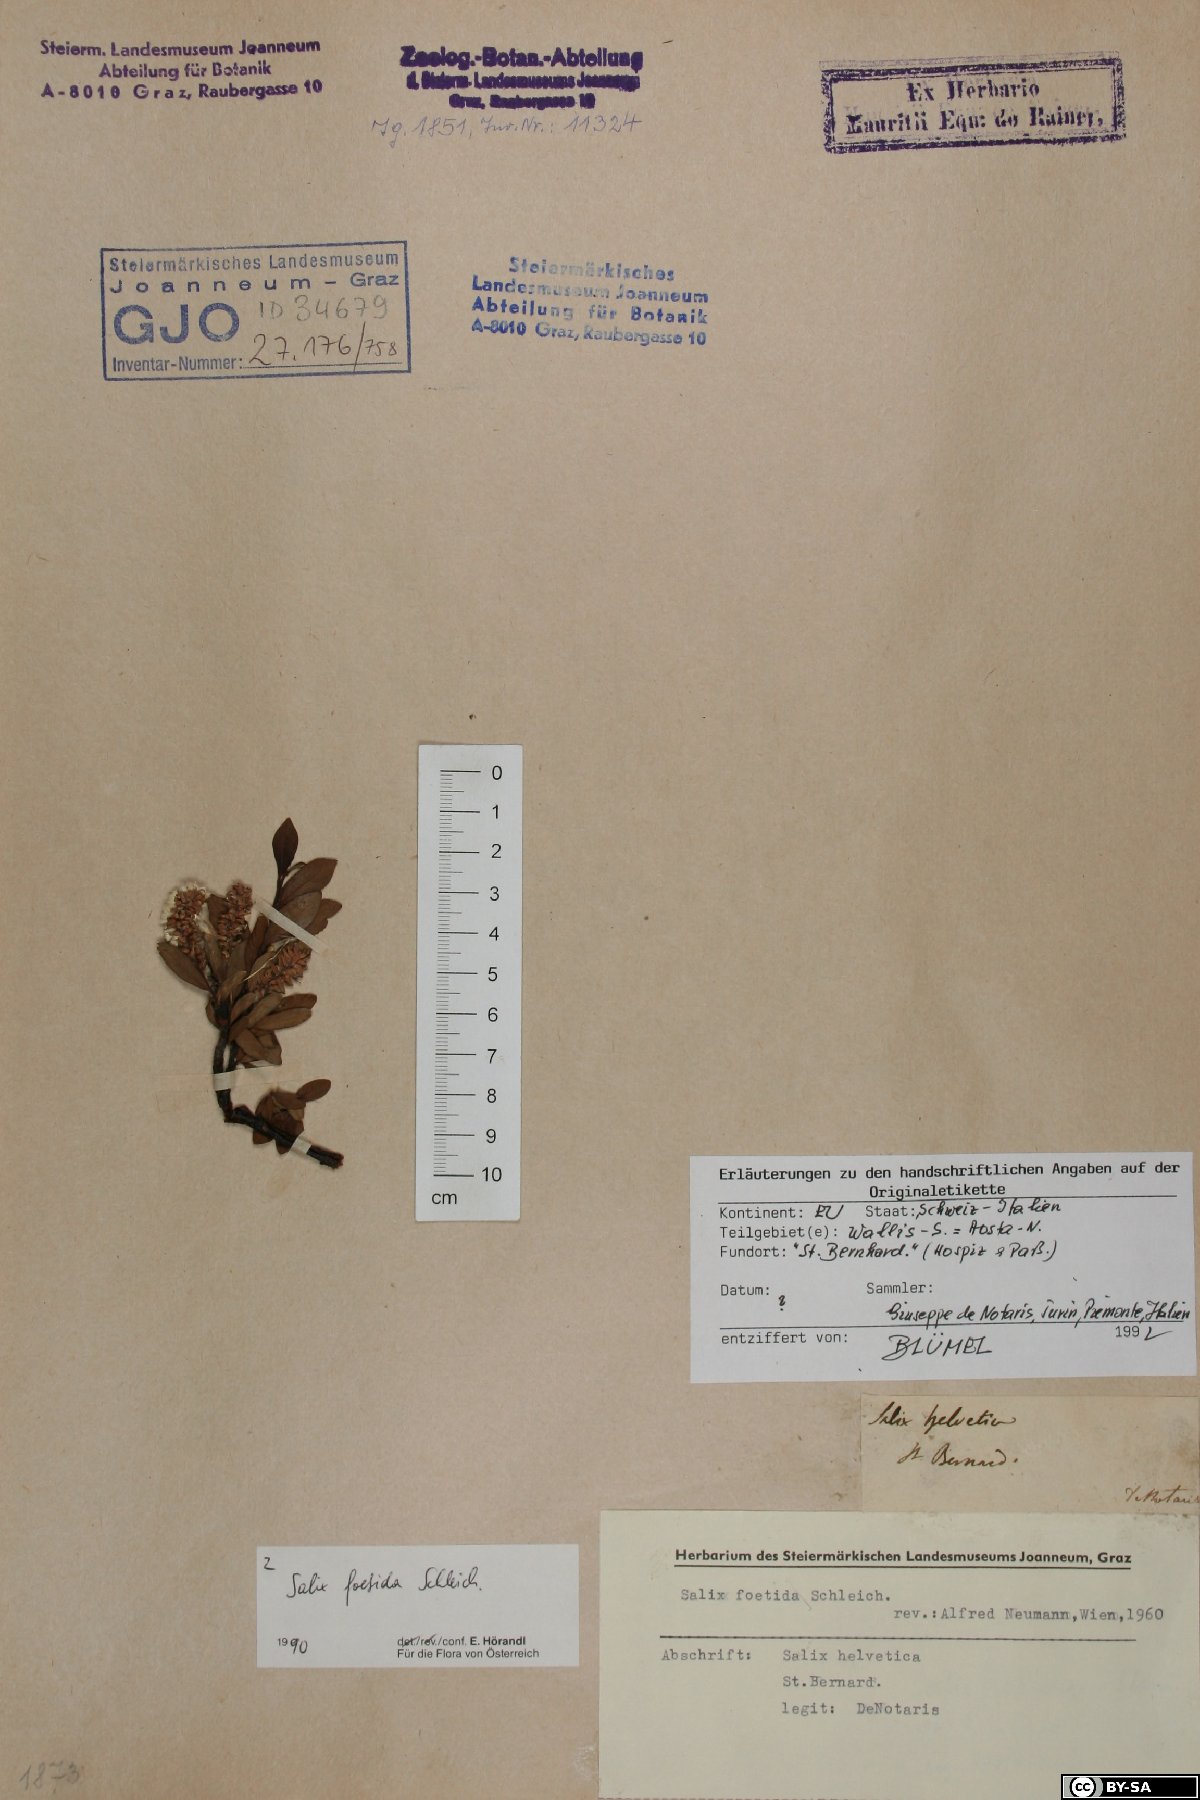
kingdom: Plantae
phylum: Tracheophyta
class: Magnoliopsida
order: Malpighiales
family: Salicaceae
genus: Salix
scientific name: Salix foetida
